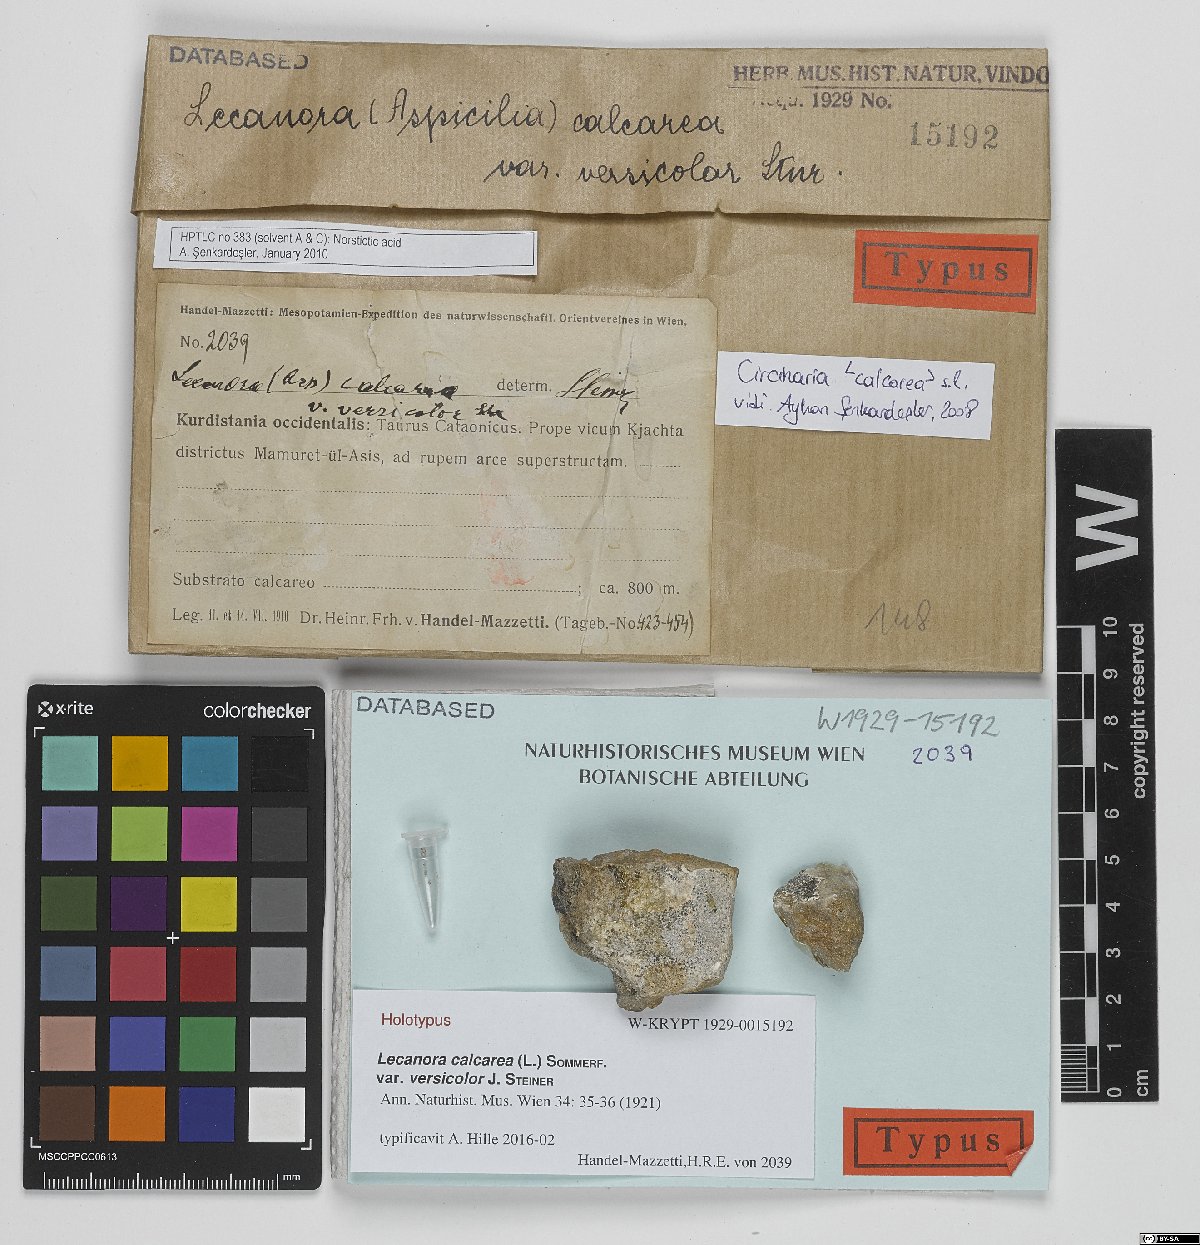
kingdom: Fungi
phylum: Ascomycota
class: Lecanoromycetes
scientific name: Lecanoromycetes
